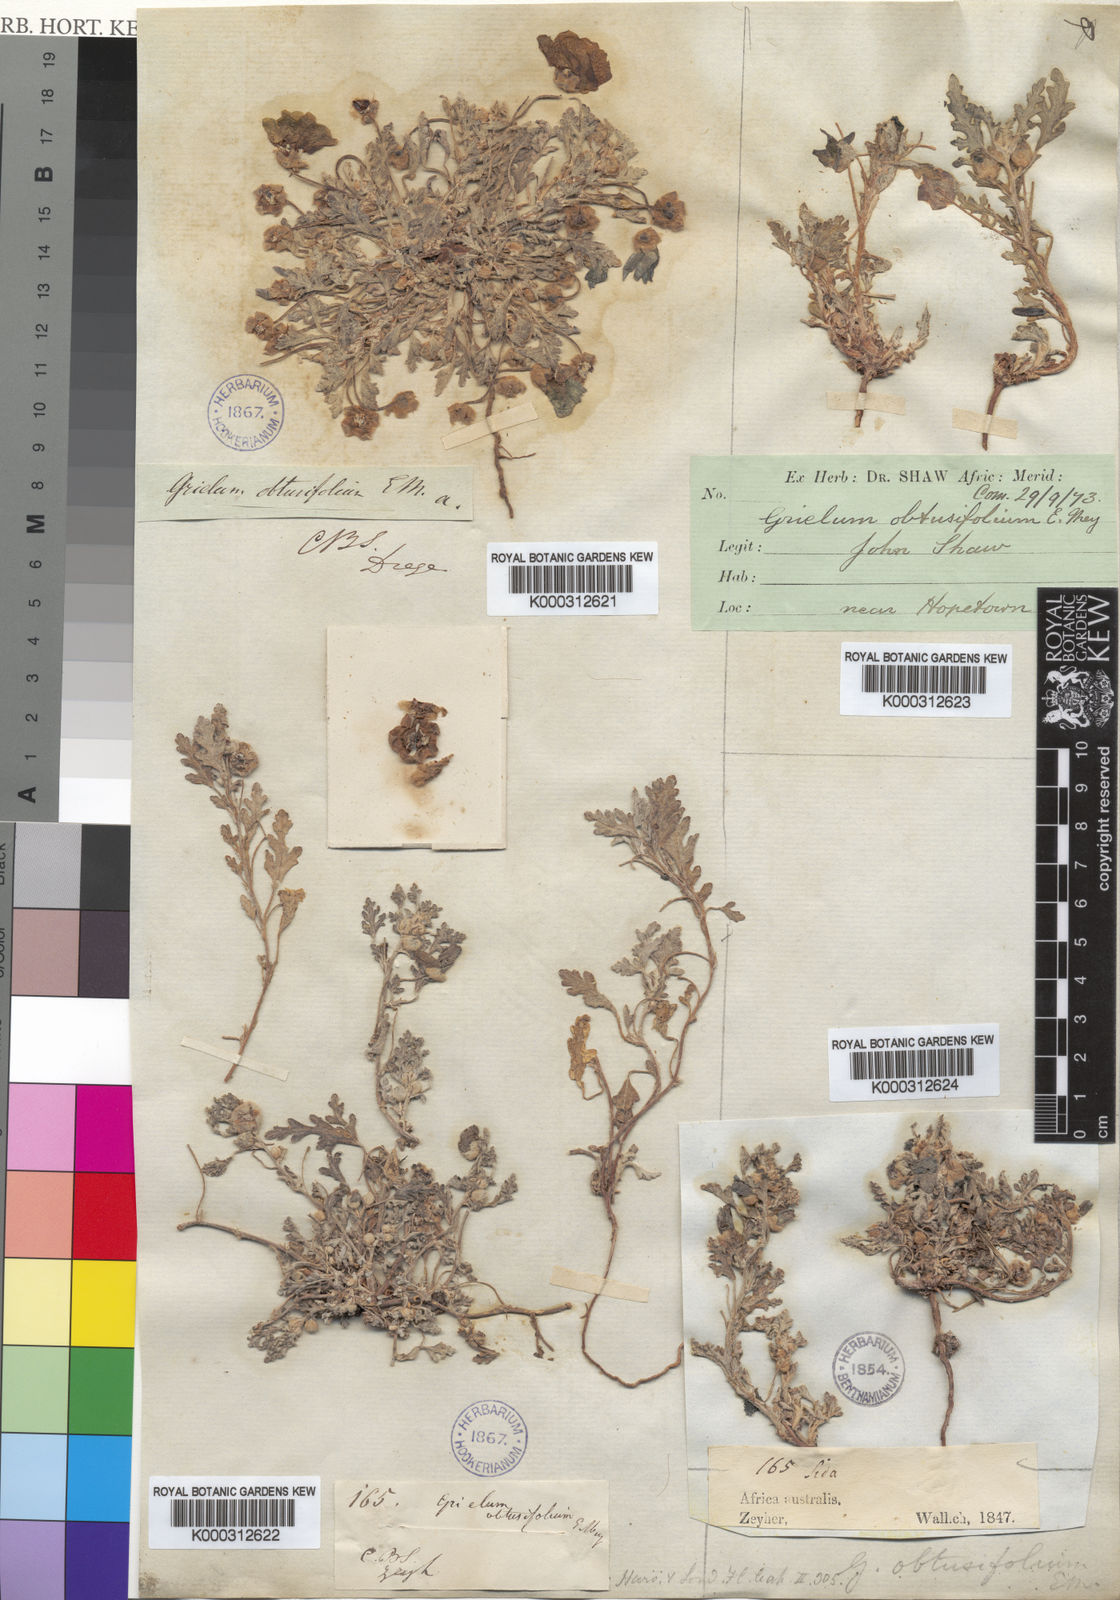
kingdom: Plantae
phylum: Tracheophyta
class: Magnoliopsida
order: Malvales
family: Neuradaceae
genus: Grielum
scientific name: Grielum
